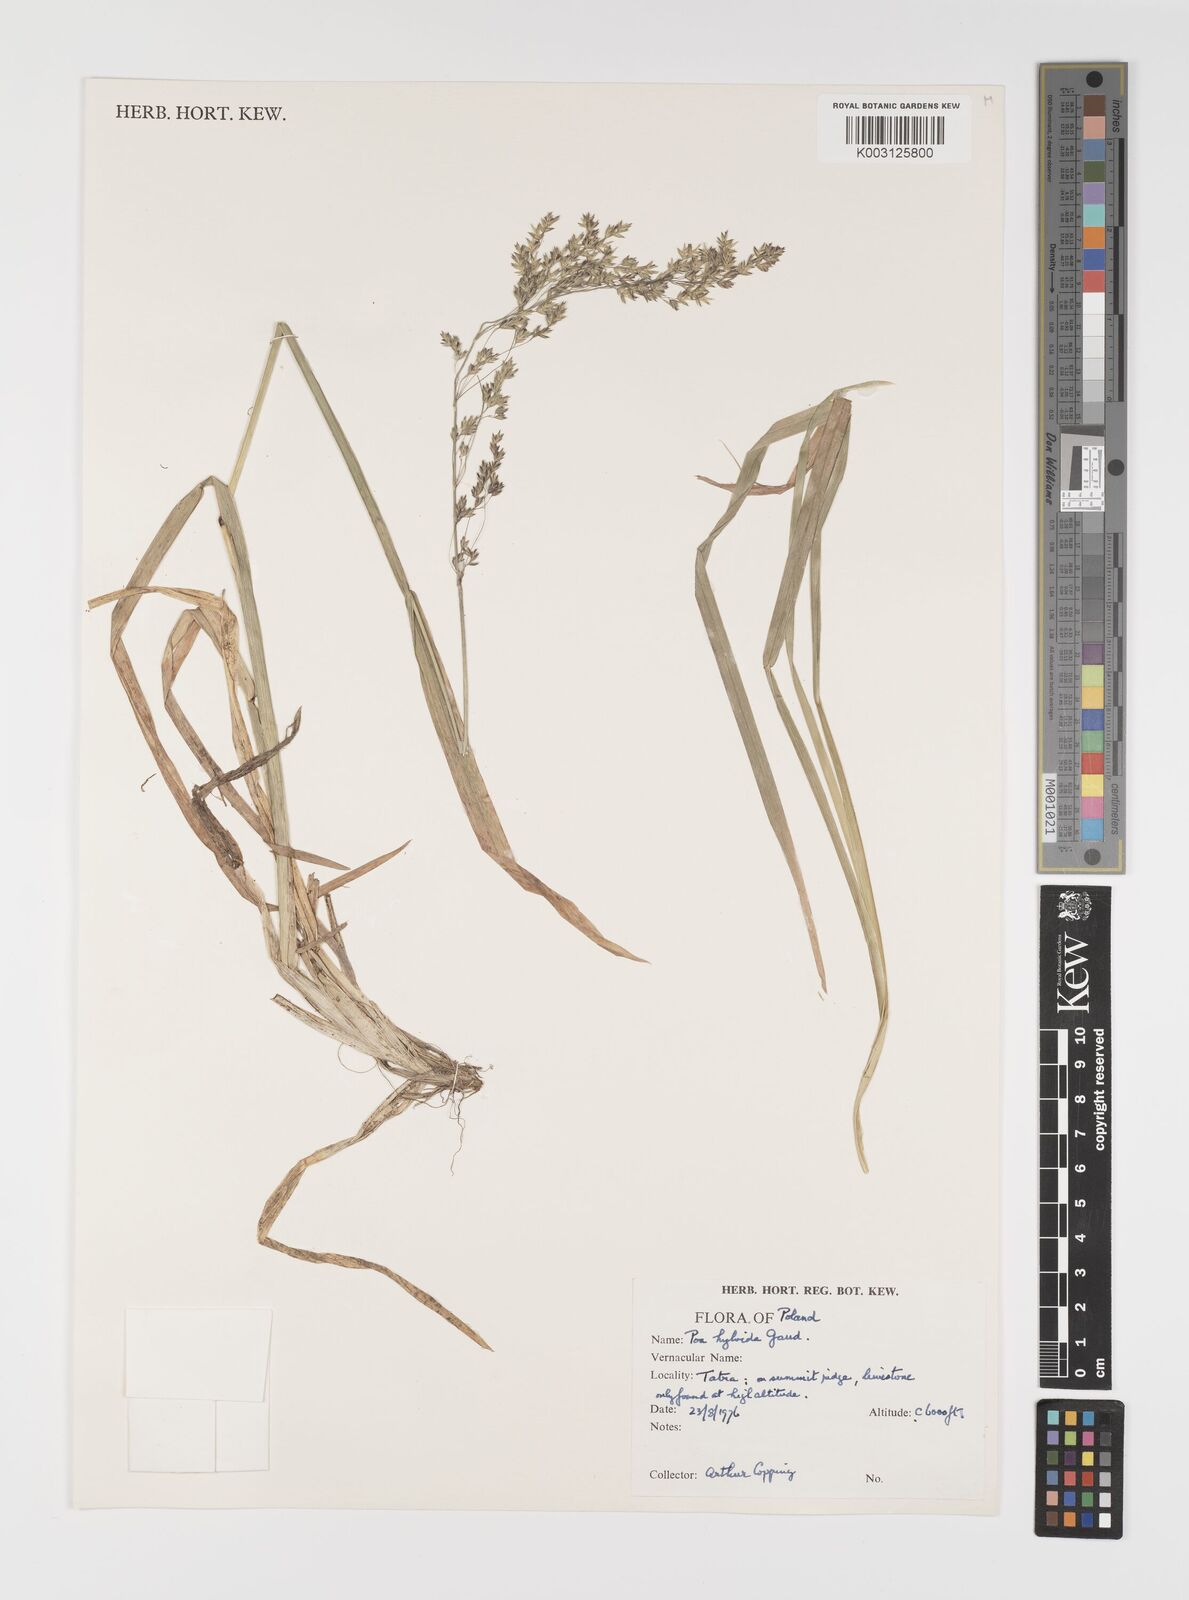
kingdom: Plantae
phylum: Tracheophyta
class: Liliopsida
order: Poales
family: Poaceae
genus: Poa
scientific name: Poa hybrida
